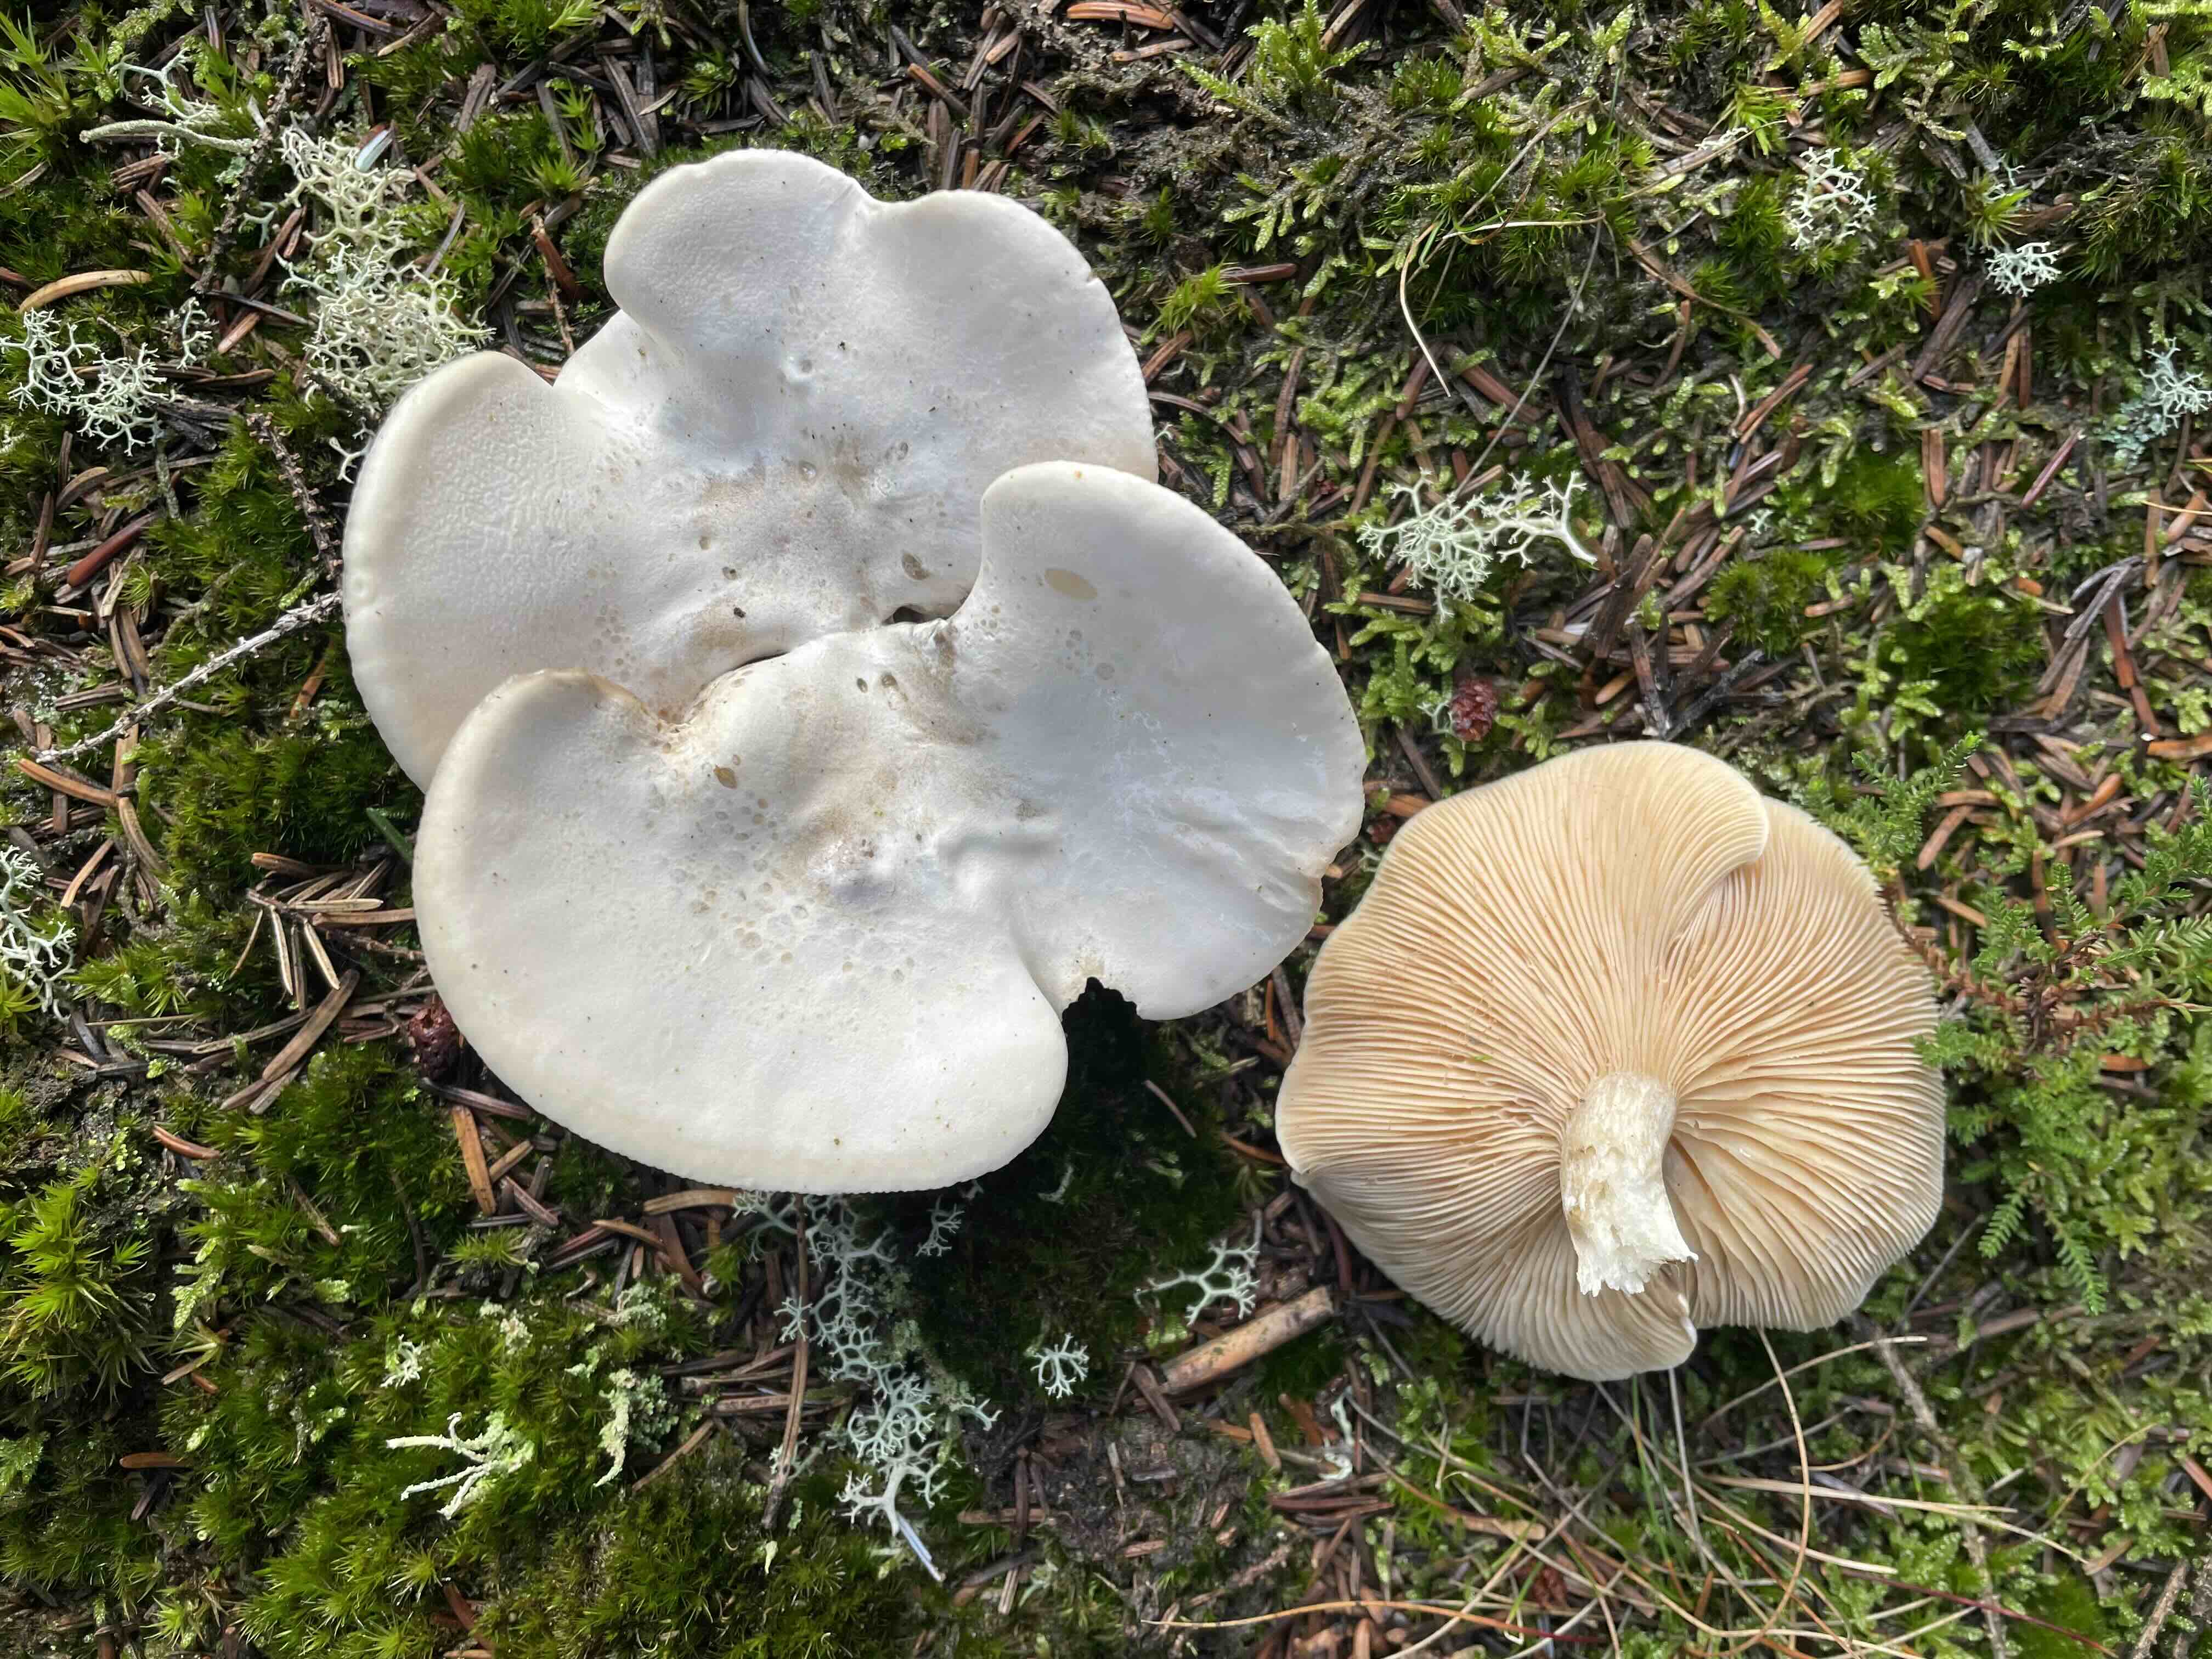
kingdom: Fungi
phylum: Basidiomycota
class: Agaricomycetes
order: Agaricales
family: Entolomataceae
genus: Clitopilus
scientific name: Clitopilus prunulus
